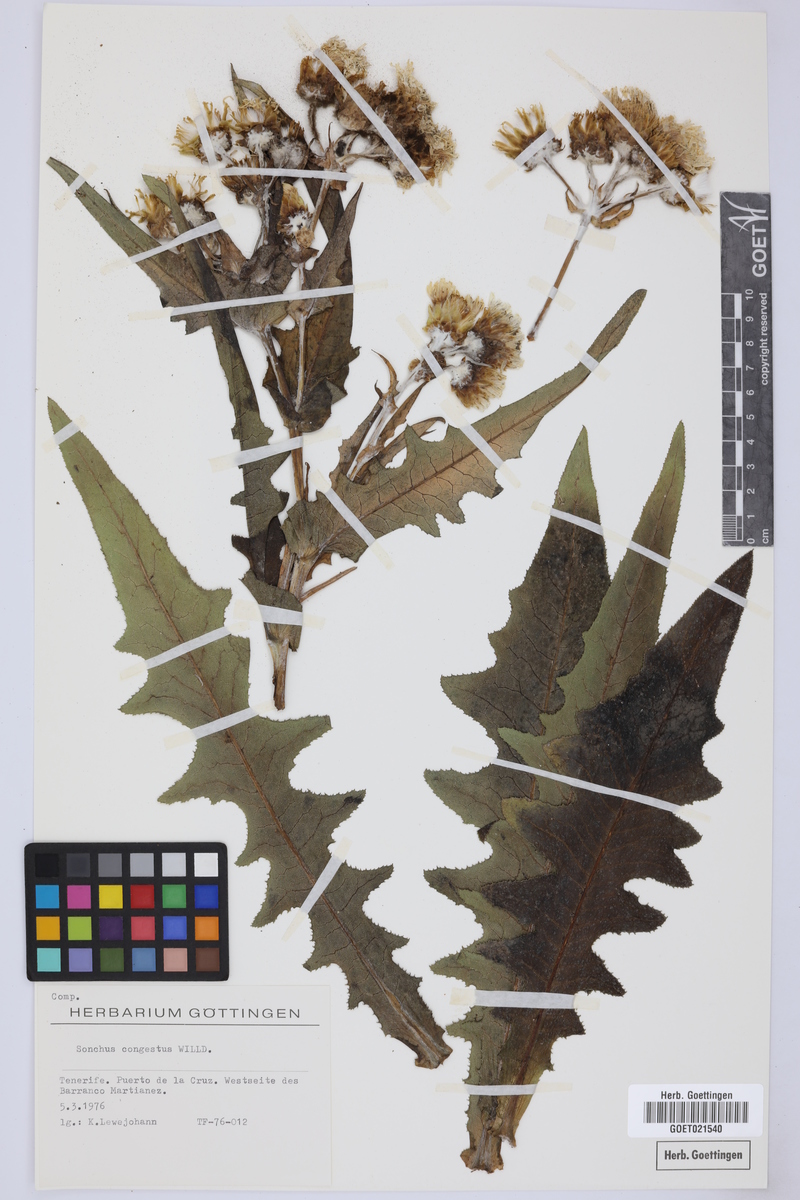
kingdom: Plantae
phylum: Tracheophyta
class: Magnoliopsida
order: Asterales
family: Asteraceae
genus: Sonchus
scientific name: Sonchus congestus
